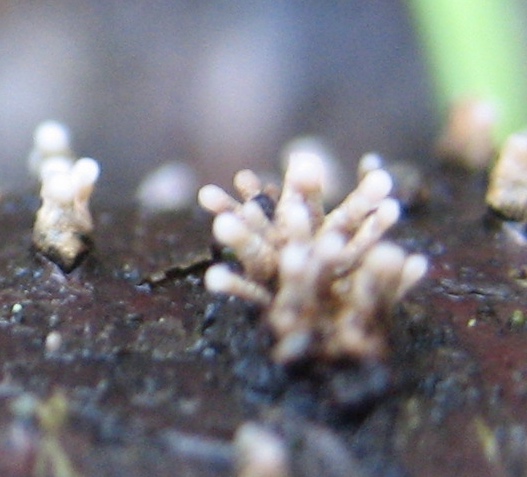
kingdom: Fungi
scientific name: Fungi
